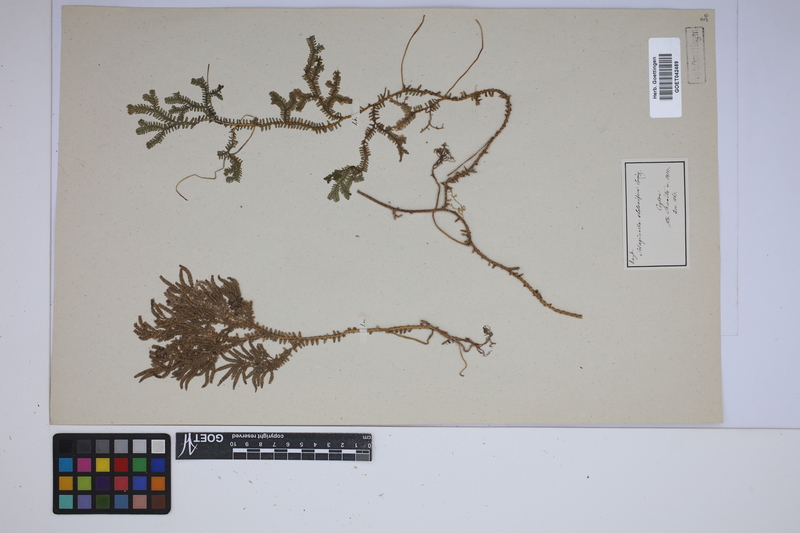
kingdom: Plantae
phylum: Tracheophyta
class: Lycopodiopsida
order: Selaginellales
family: Selaginellaceae
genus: Selaginella
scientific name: Selaginella intermedia
